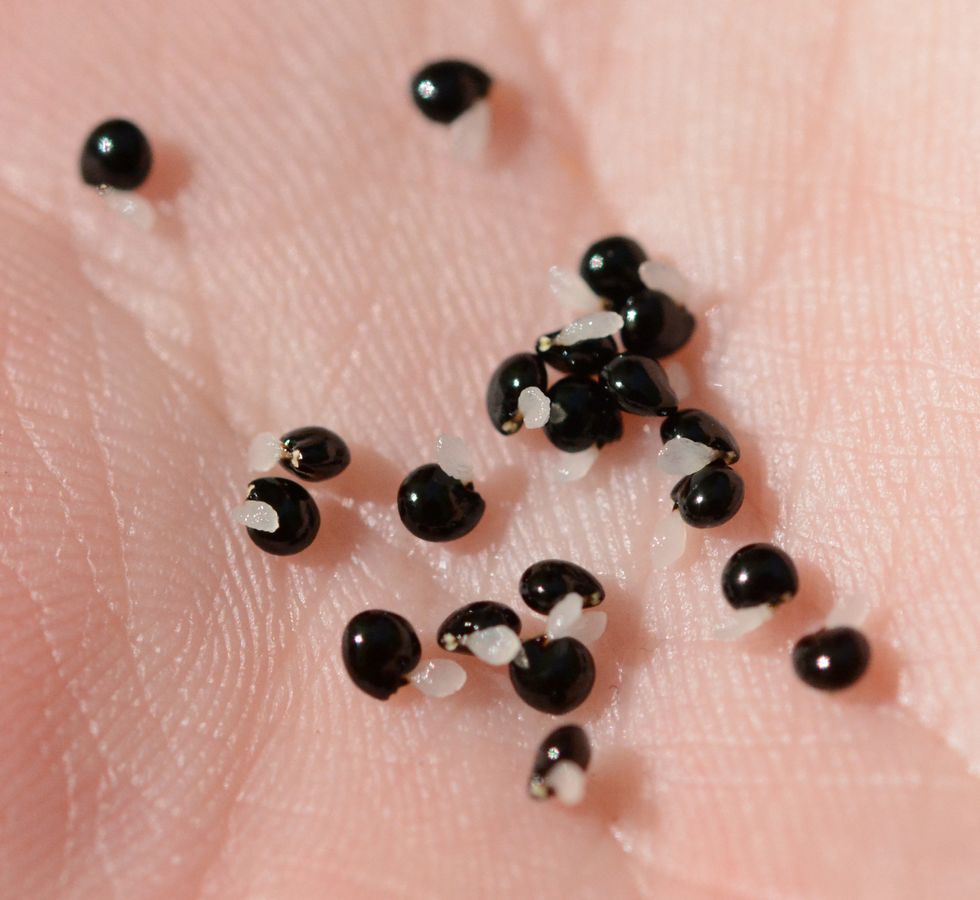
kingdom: Plantae
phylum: Tracheophyta
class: Magnoliopsida
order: Ranunculales
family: Papaveraceae
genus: Corydalis
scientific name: Corydalis solida
